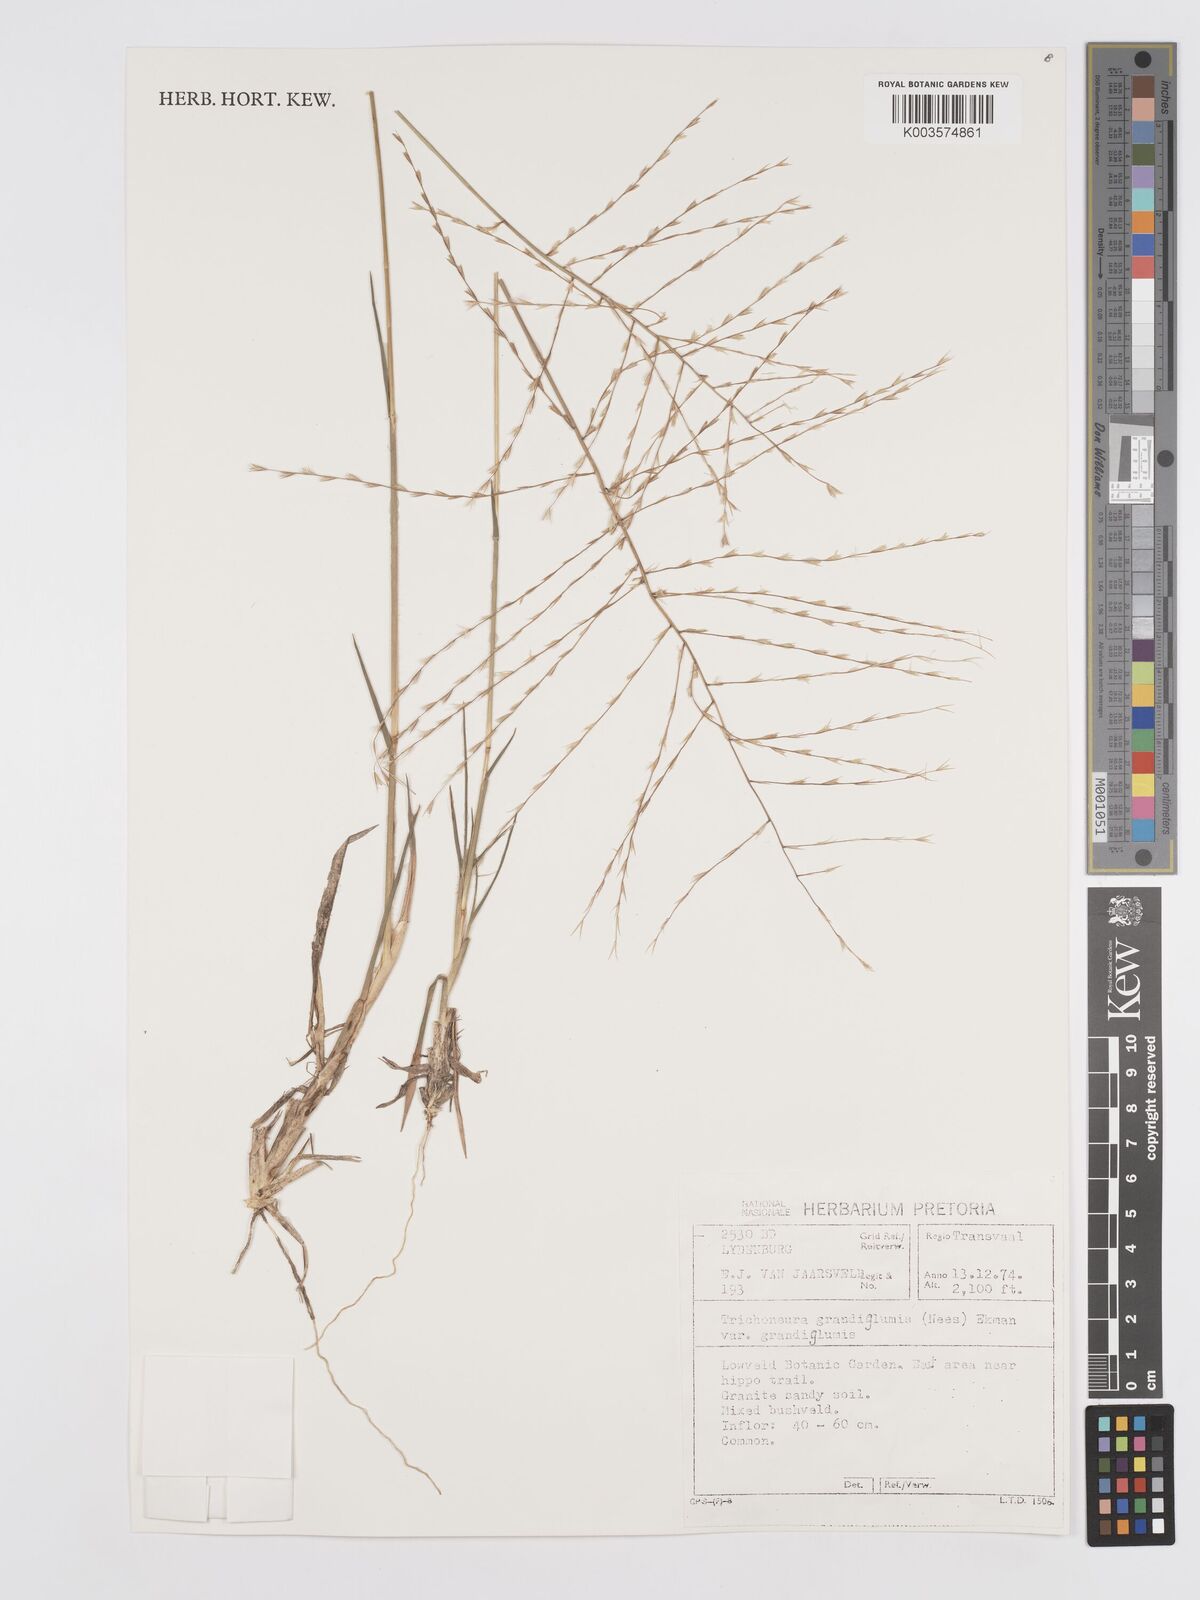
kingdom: Plantae
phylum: Tracheophyta
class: Liliopsida
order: Poales
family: Poaceae
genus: Trichoneura
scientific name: Trichoneura grandiglumis
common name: Rolling grass
